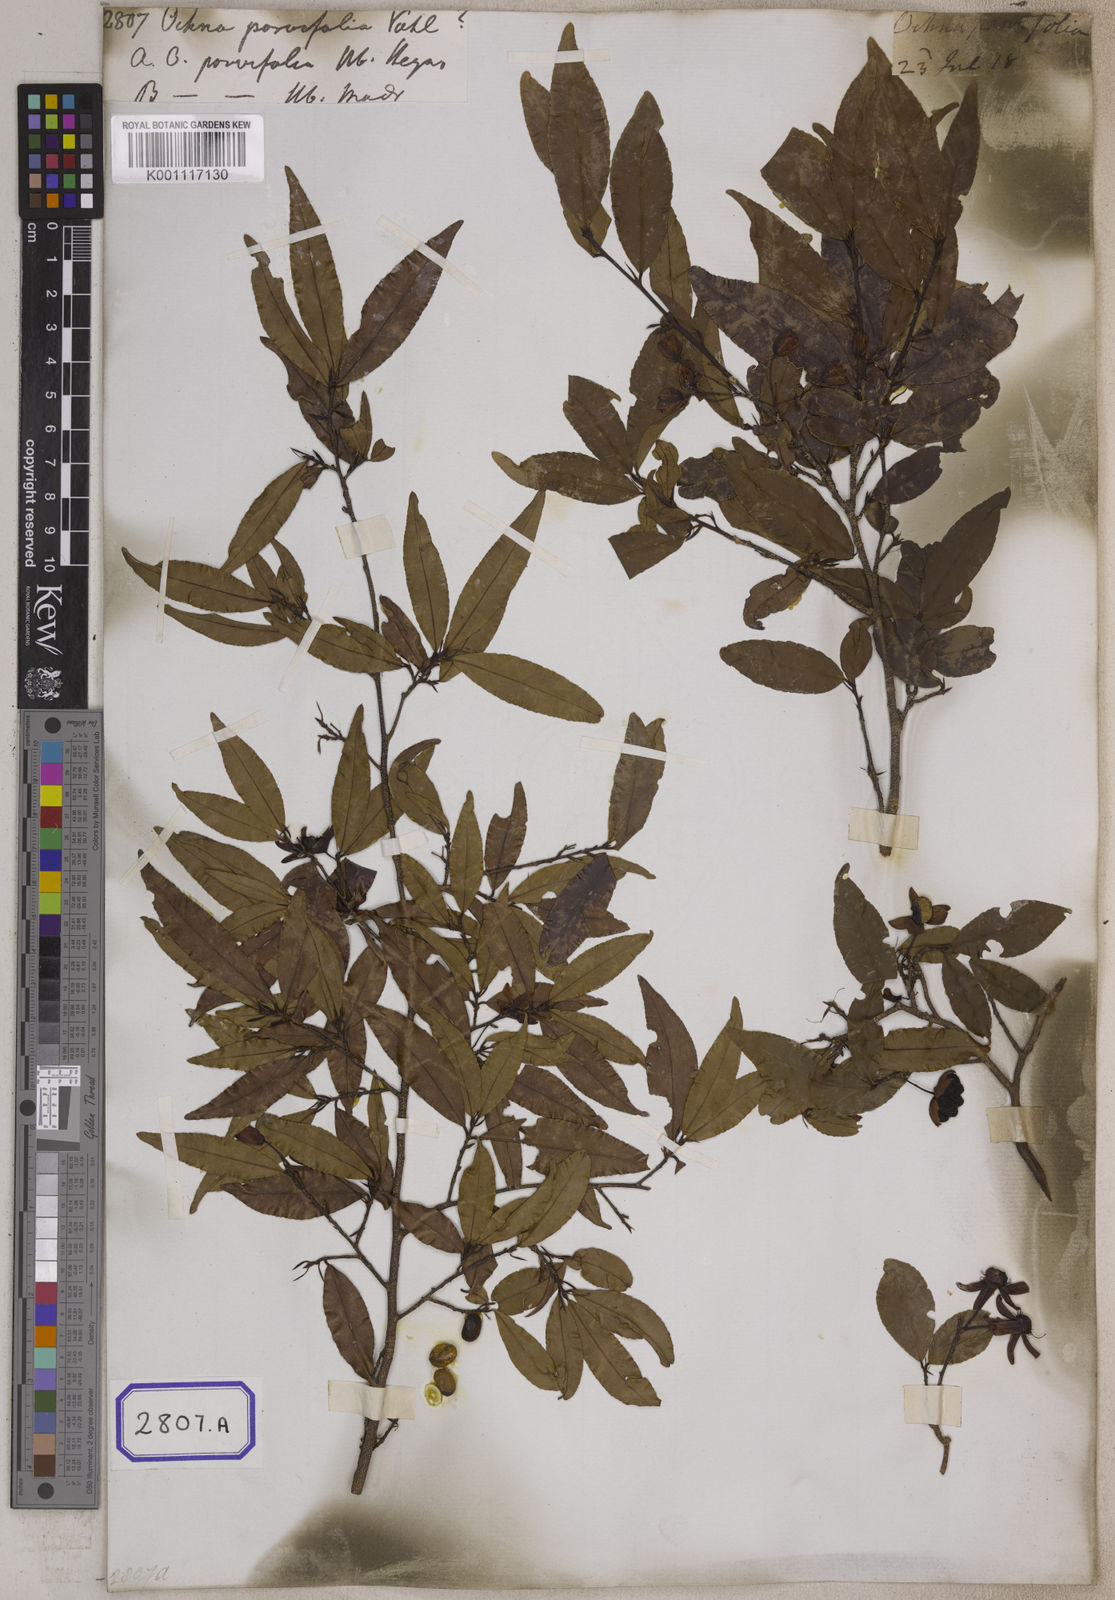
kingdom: Plantae
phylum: Tracheophyta
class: Magnoliopsida
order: Malpighiales
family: Ochnaceae
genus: Ochna
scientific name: Ochna
